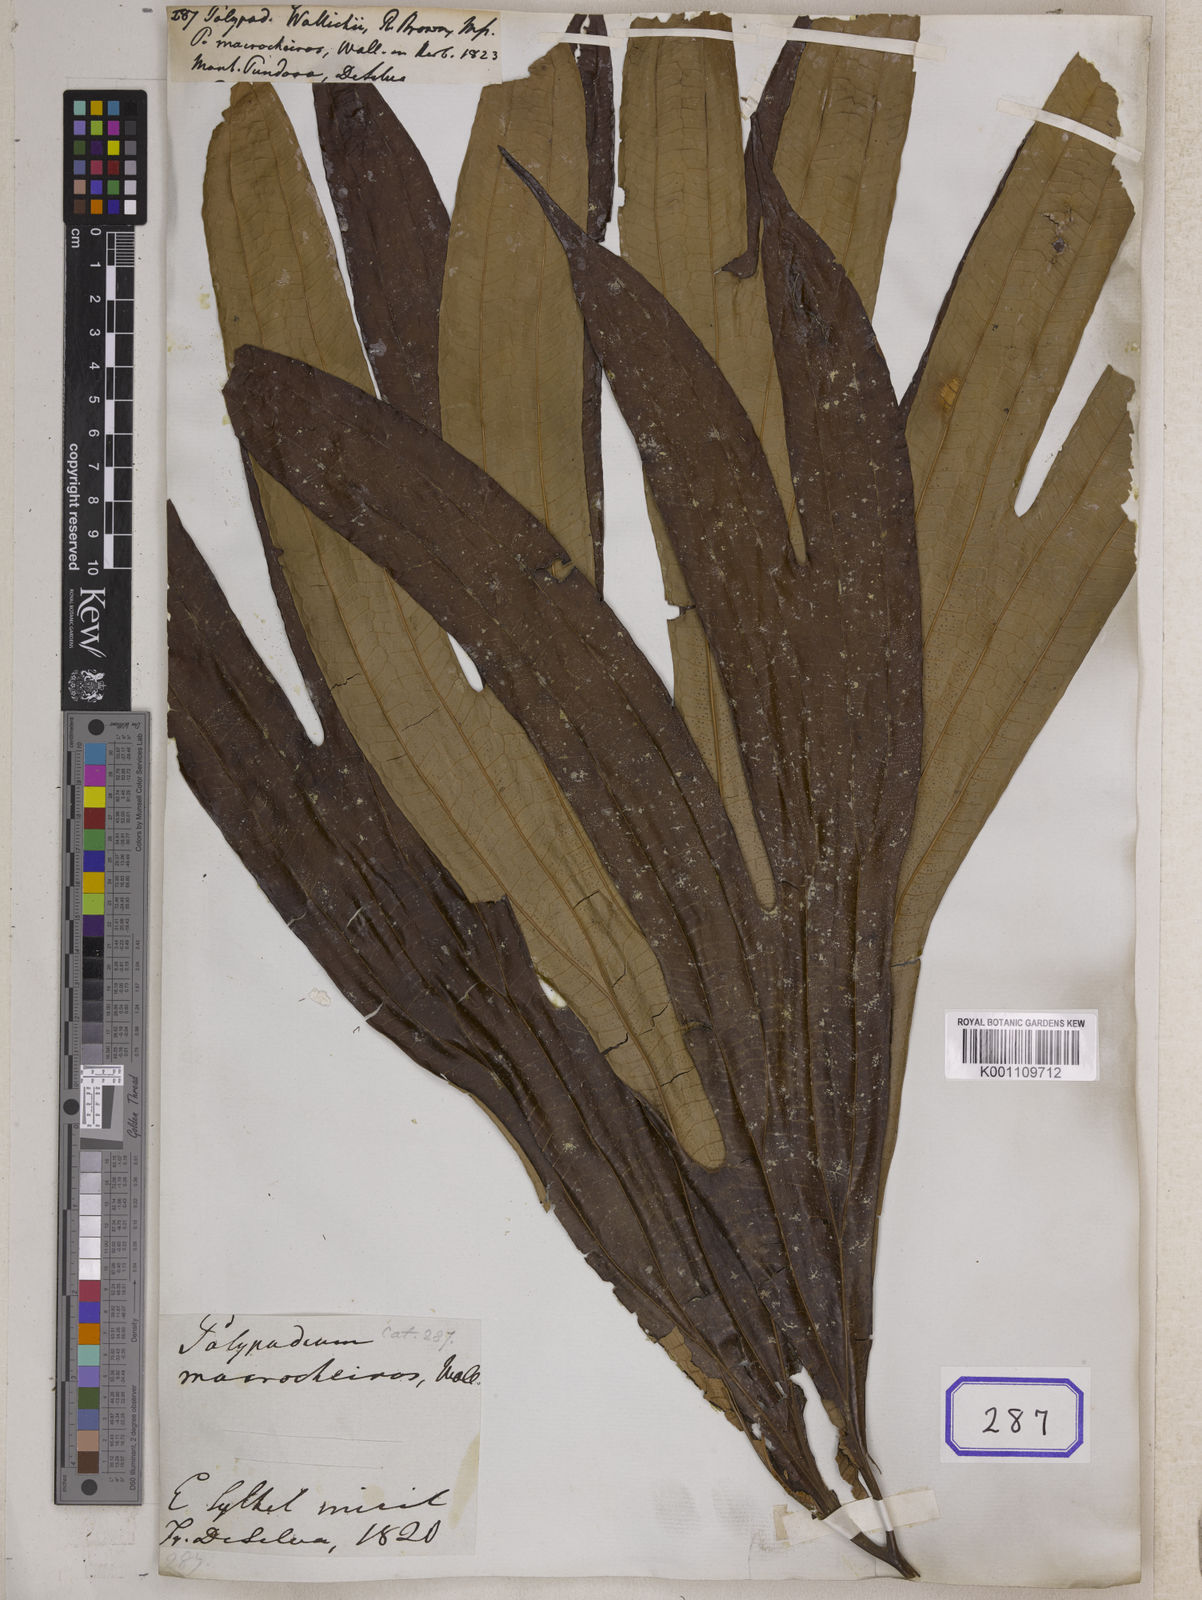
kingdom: Plantae
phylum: Tracheophyta
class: Polypodiopsida
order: Gleicheniales
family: Dipteridaceae
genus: Dipteris
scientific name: Dipteris wallichii
